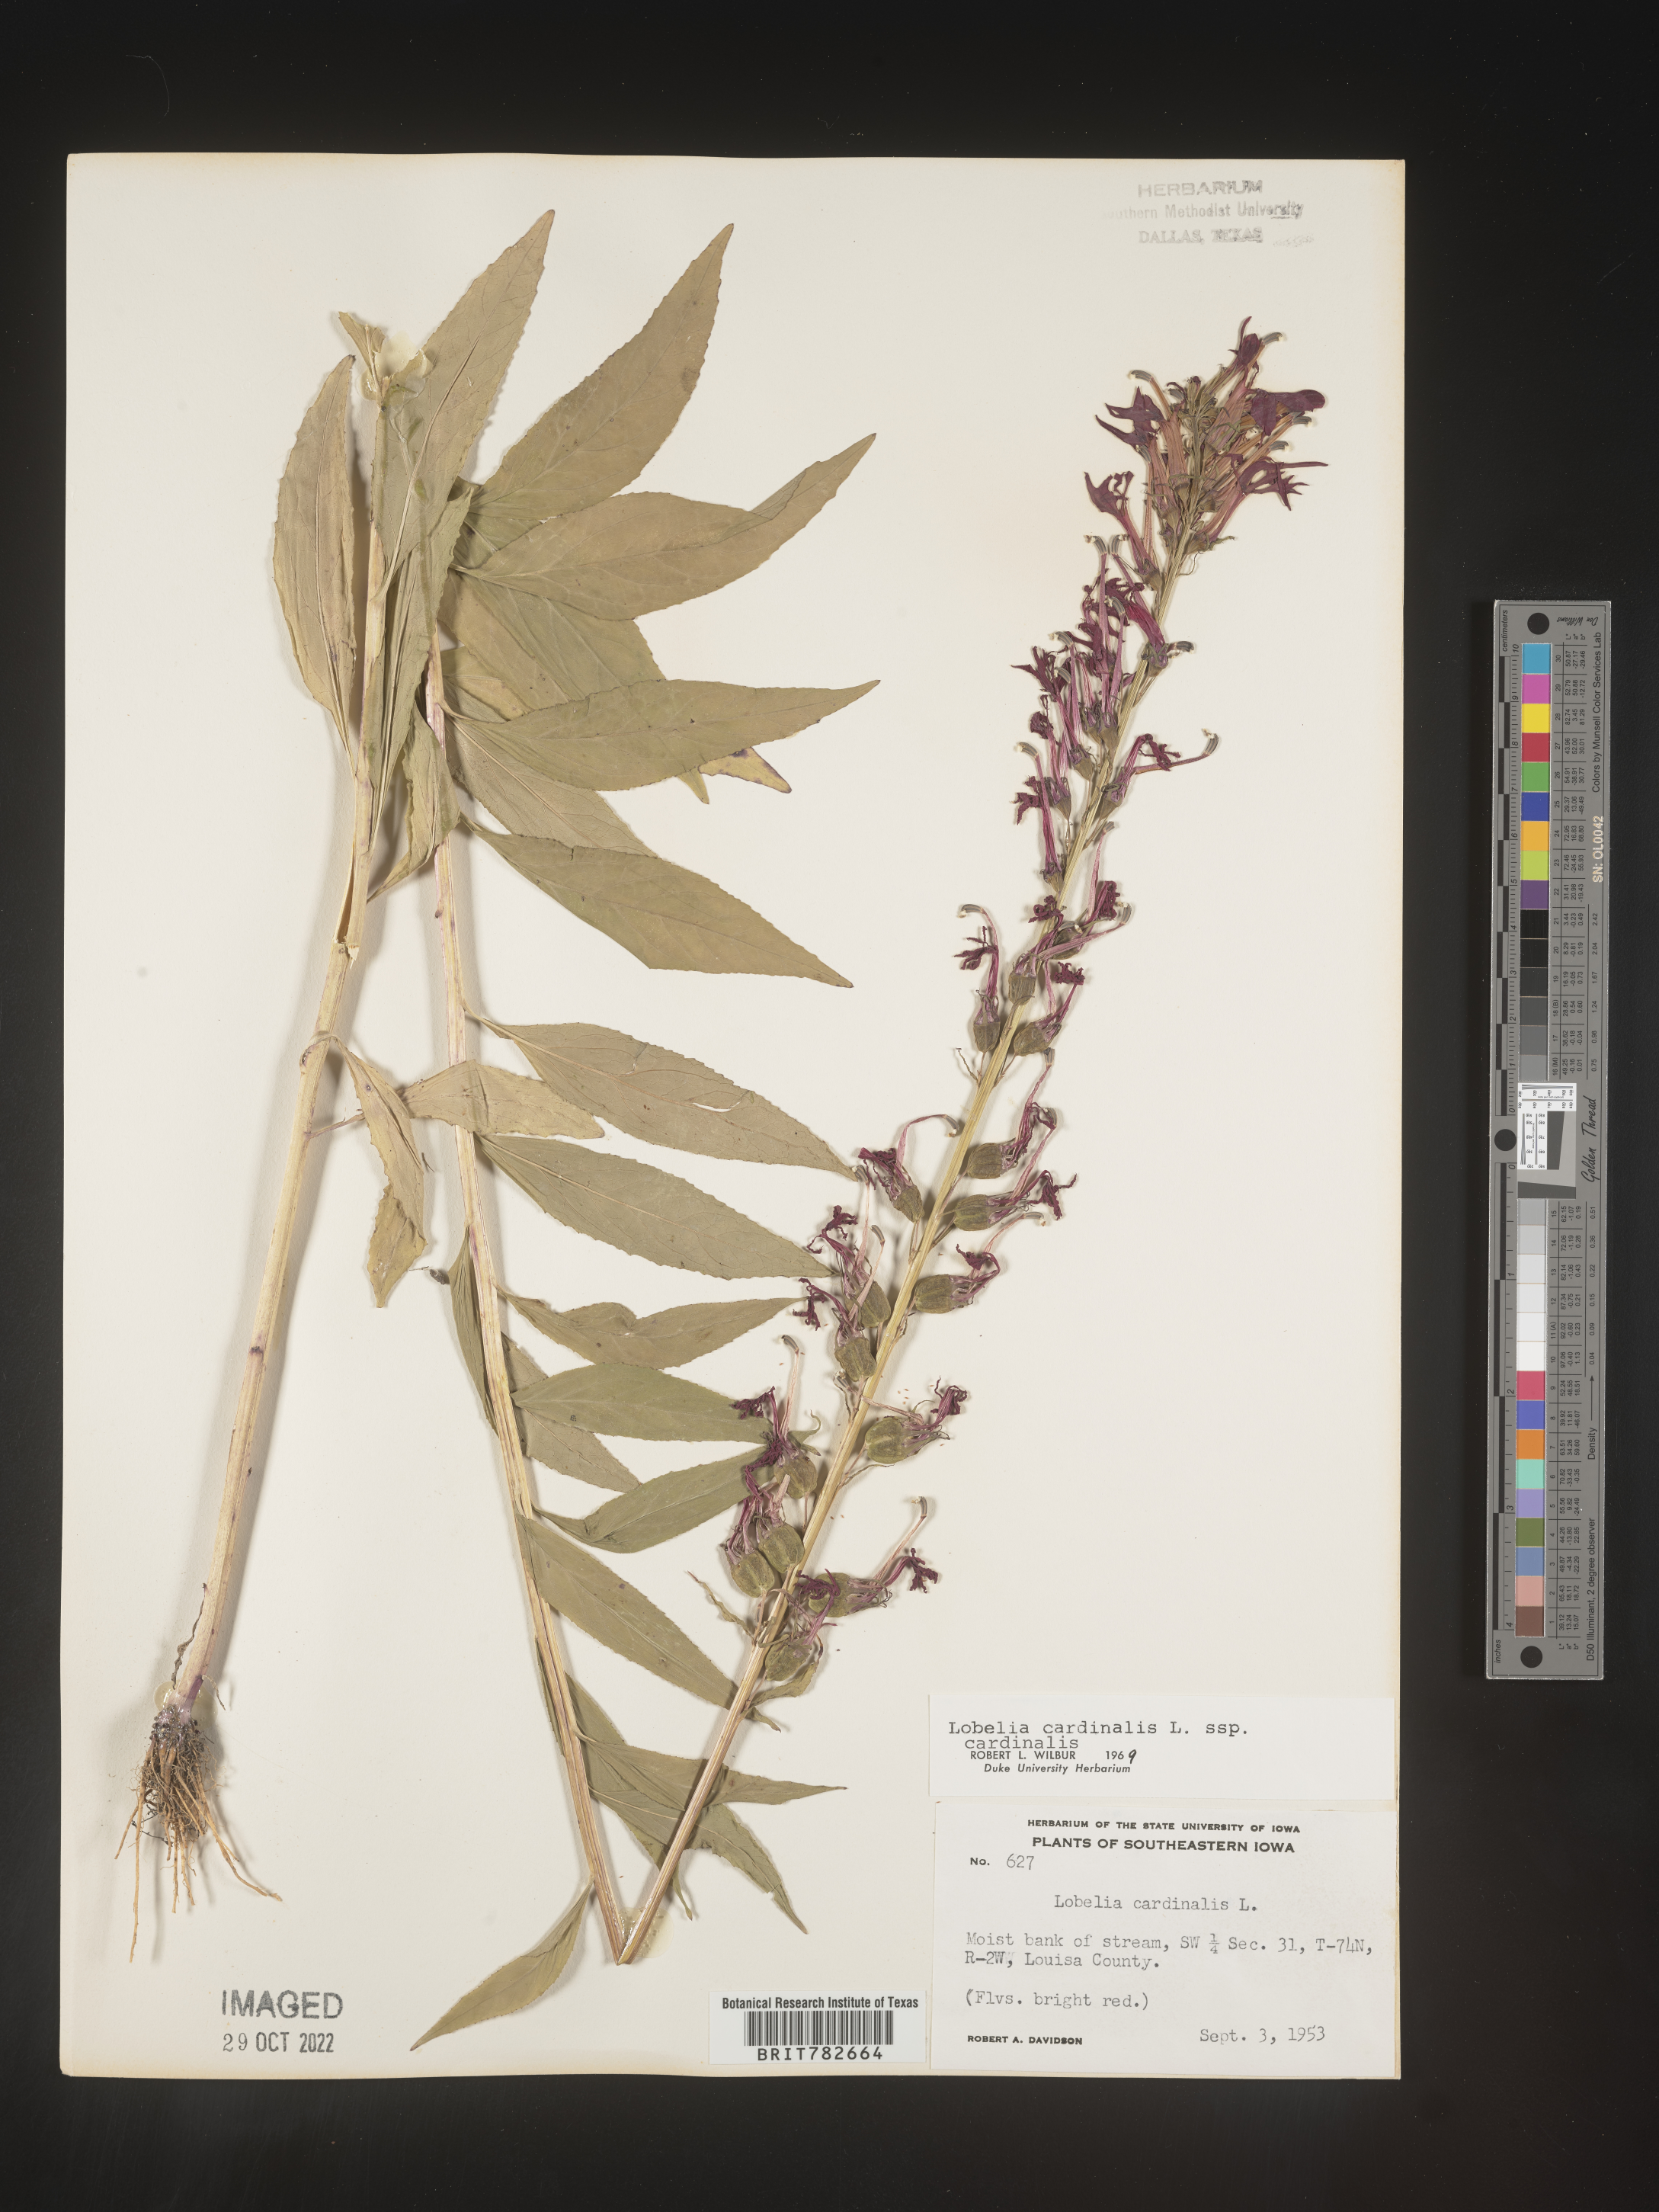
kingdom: Plantae
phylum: Tracheophyta
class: Magnoliopsida
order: Asterales
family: Campanulaceae
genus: Lobelia
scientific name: Lobelia cardinalis
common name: Cardinal flower
